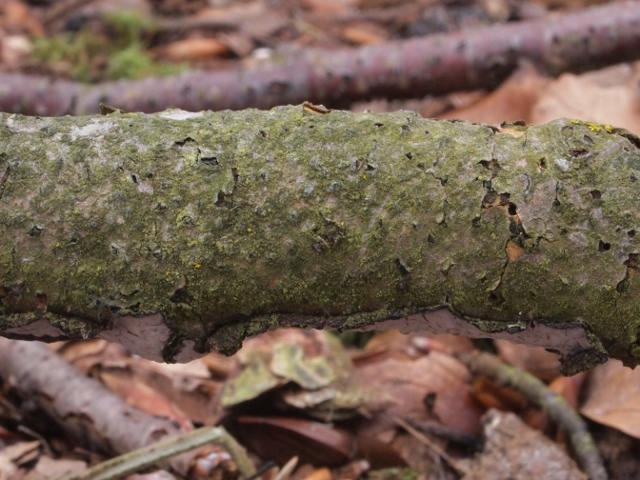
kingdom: Fungi
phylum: Basidiomycota
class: Agaricomycetes
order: Russulales
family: Peniophoraceae
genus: Peniophora
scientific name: Peniophora quercina
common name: ege-voksskind
